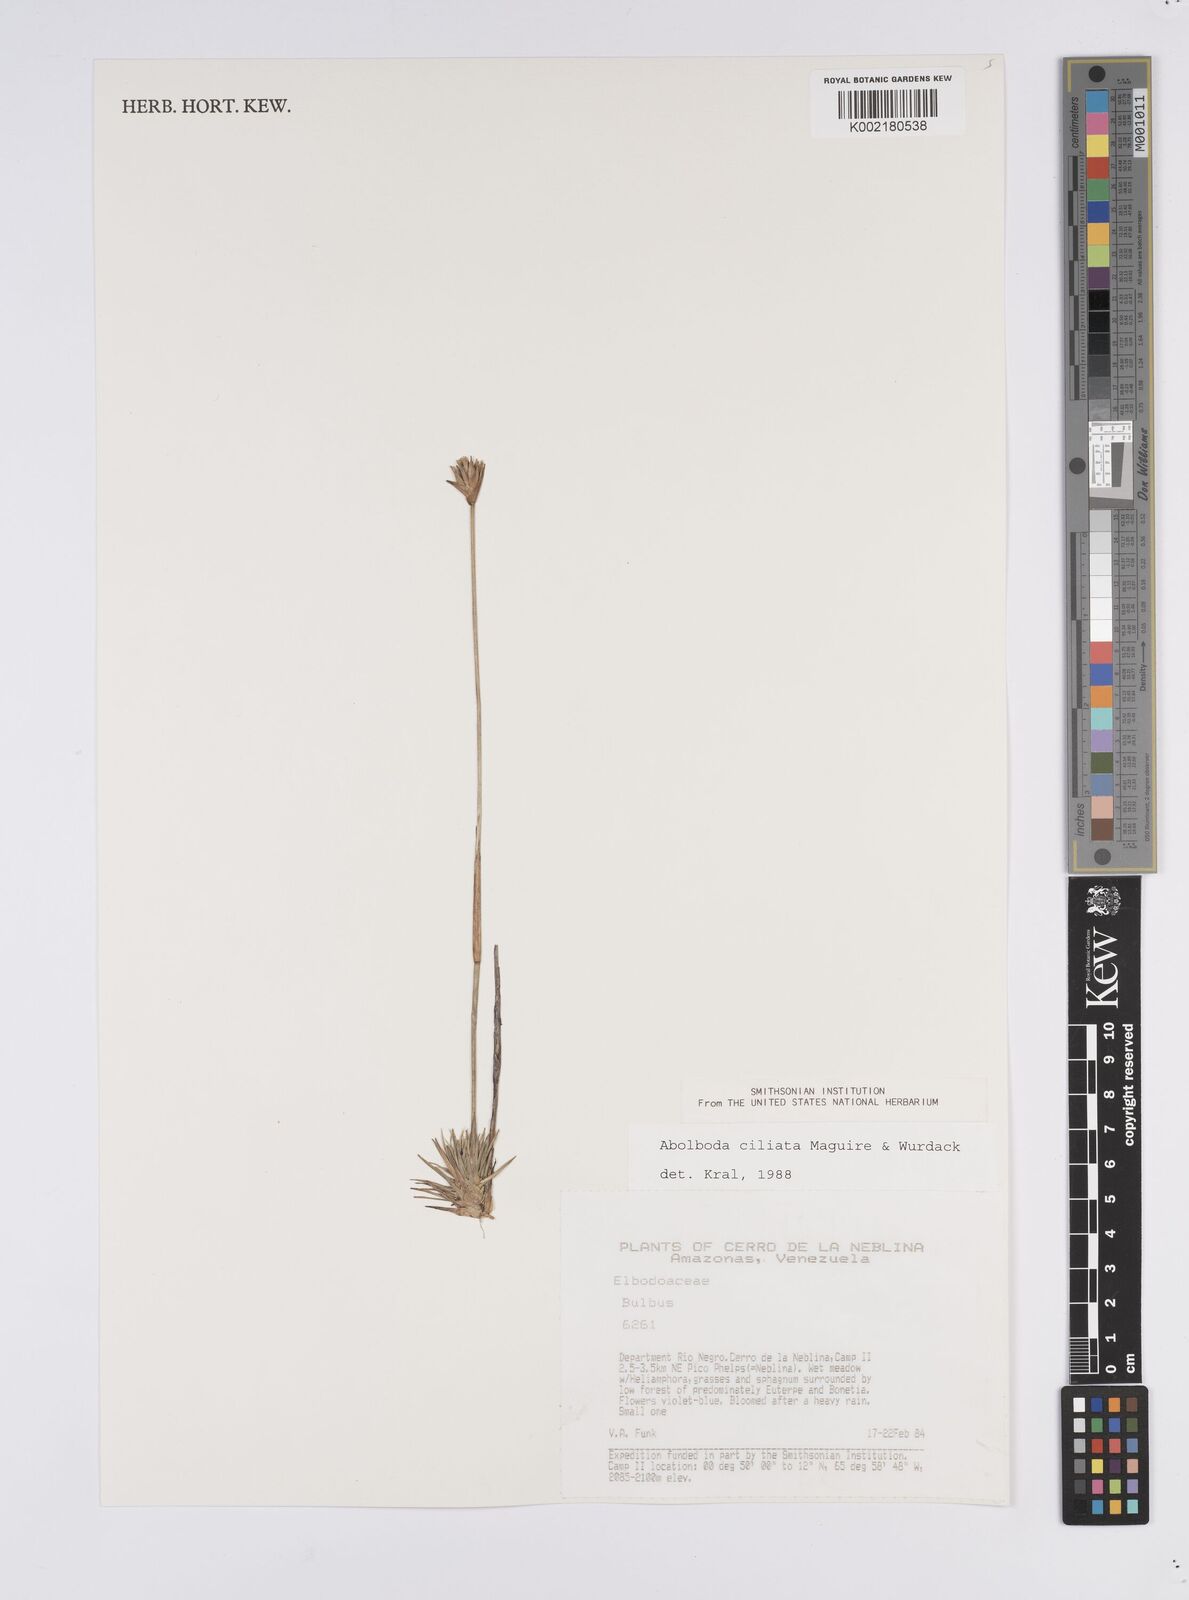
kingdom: Plantae
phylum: Tracheophyta
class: Liliopsida
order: Poales
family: Xyridaceae
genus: Abolboda
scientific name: Abolboda ciliata
